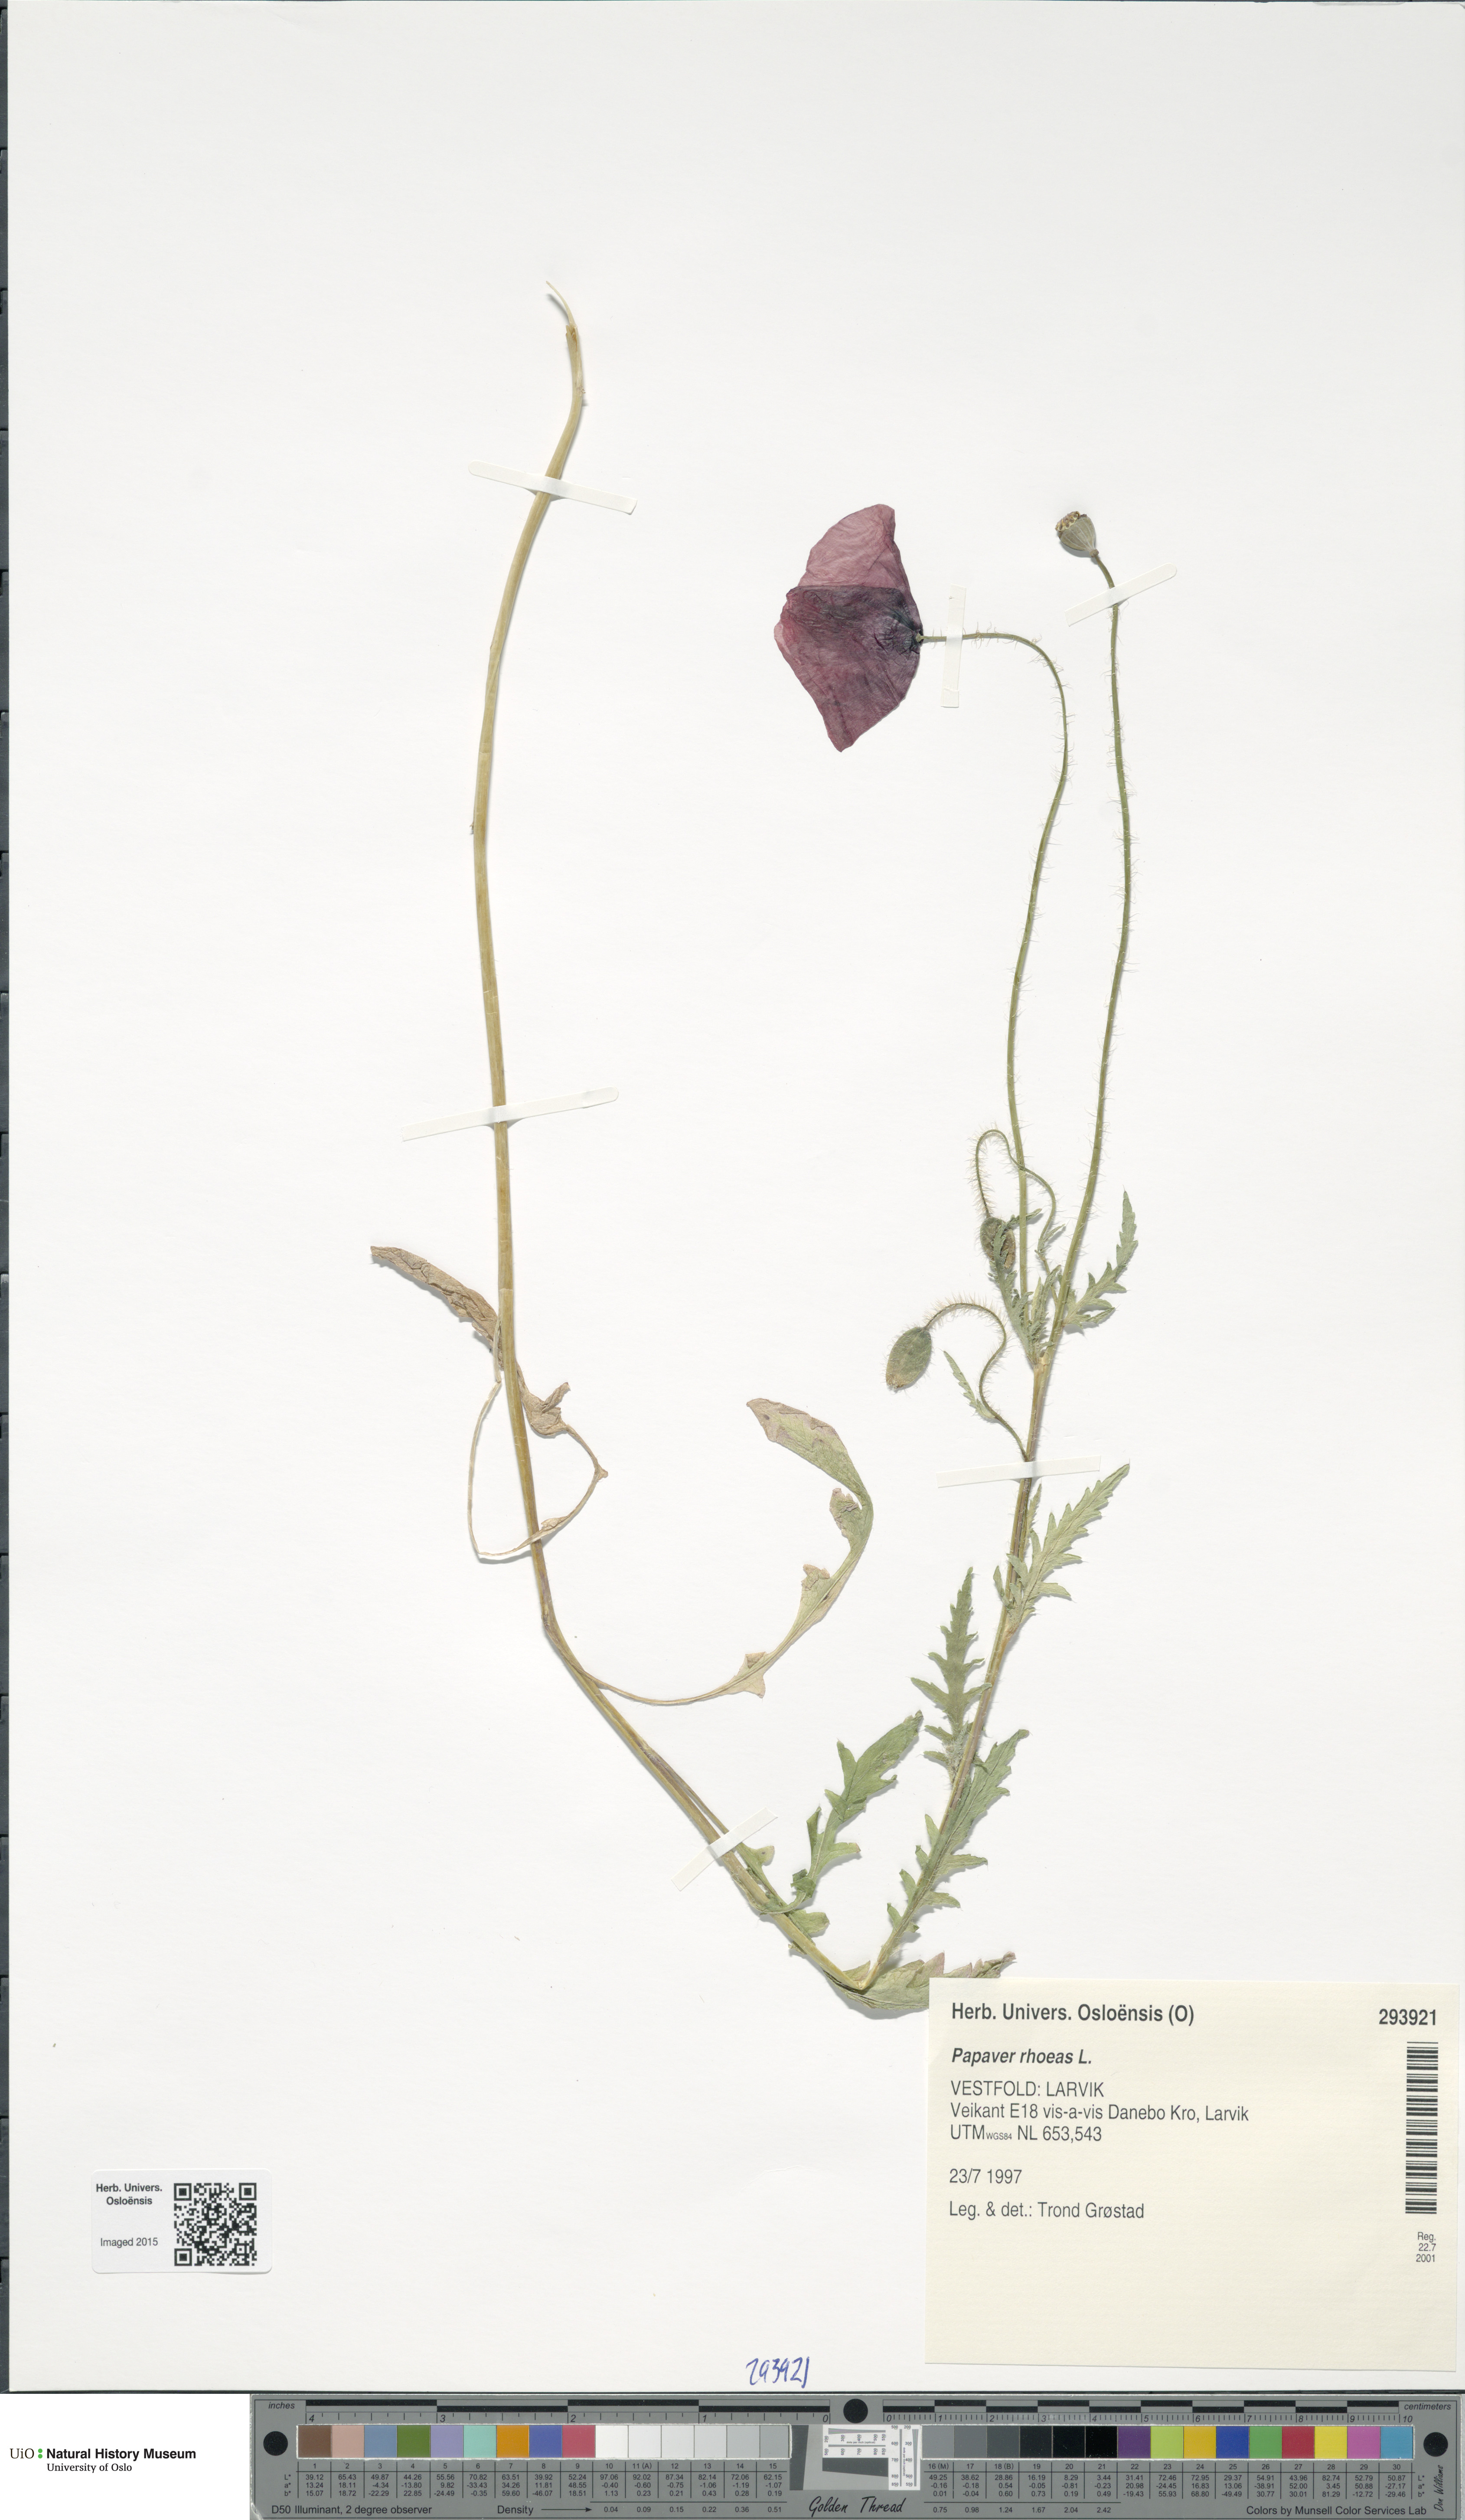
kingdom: Plantae
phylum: Tracheophyta
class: Magnoliopsida
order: Ranunculales
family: Papaveraceae
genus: Papaver
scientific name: Papaver rhoeas
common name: Corn poppy
